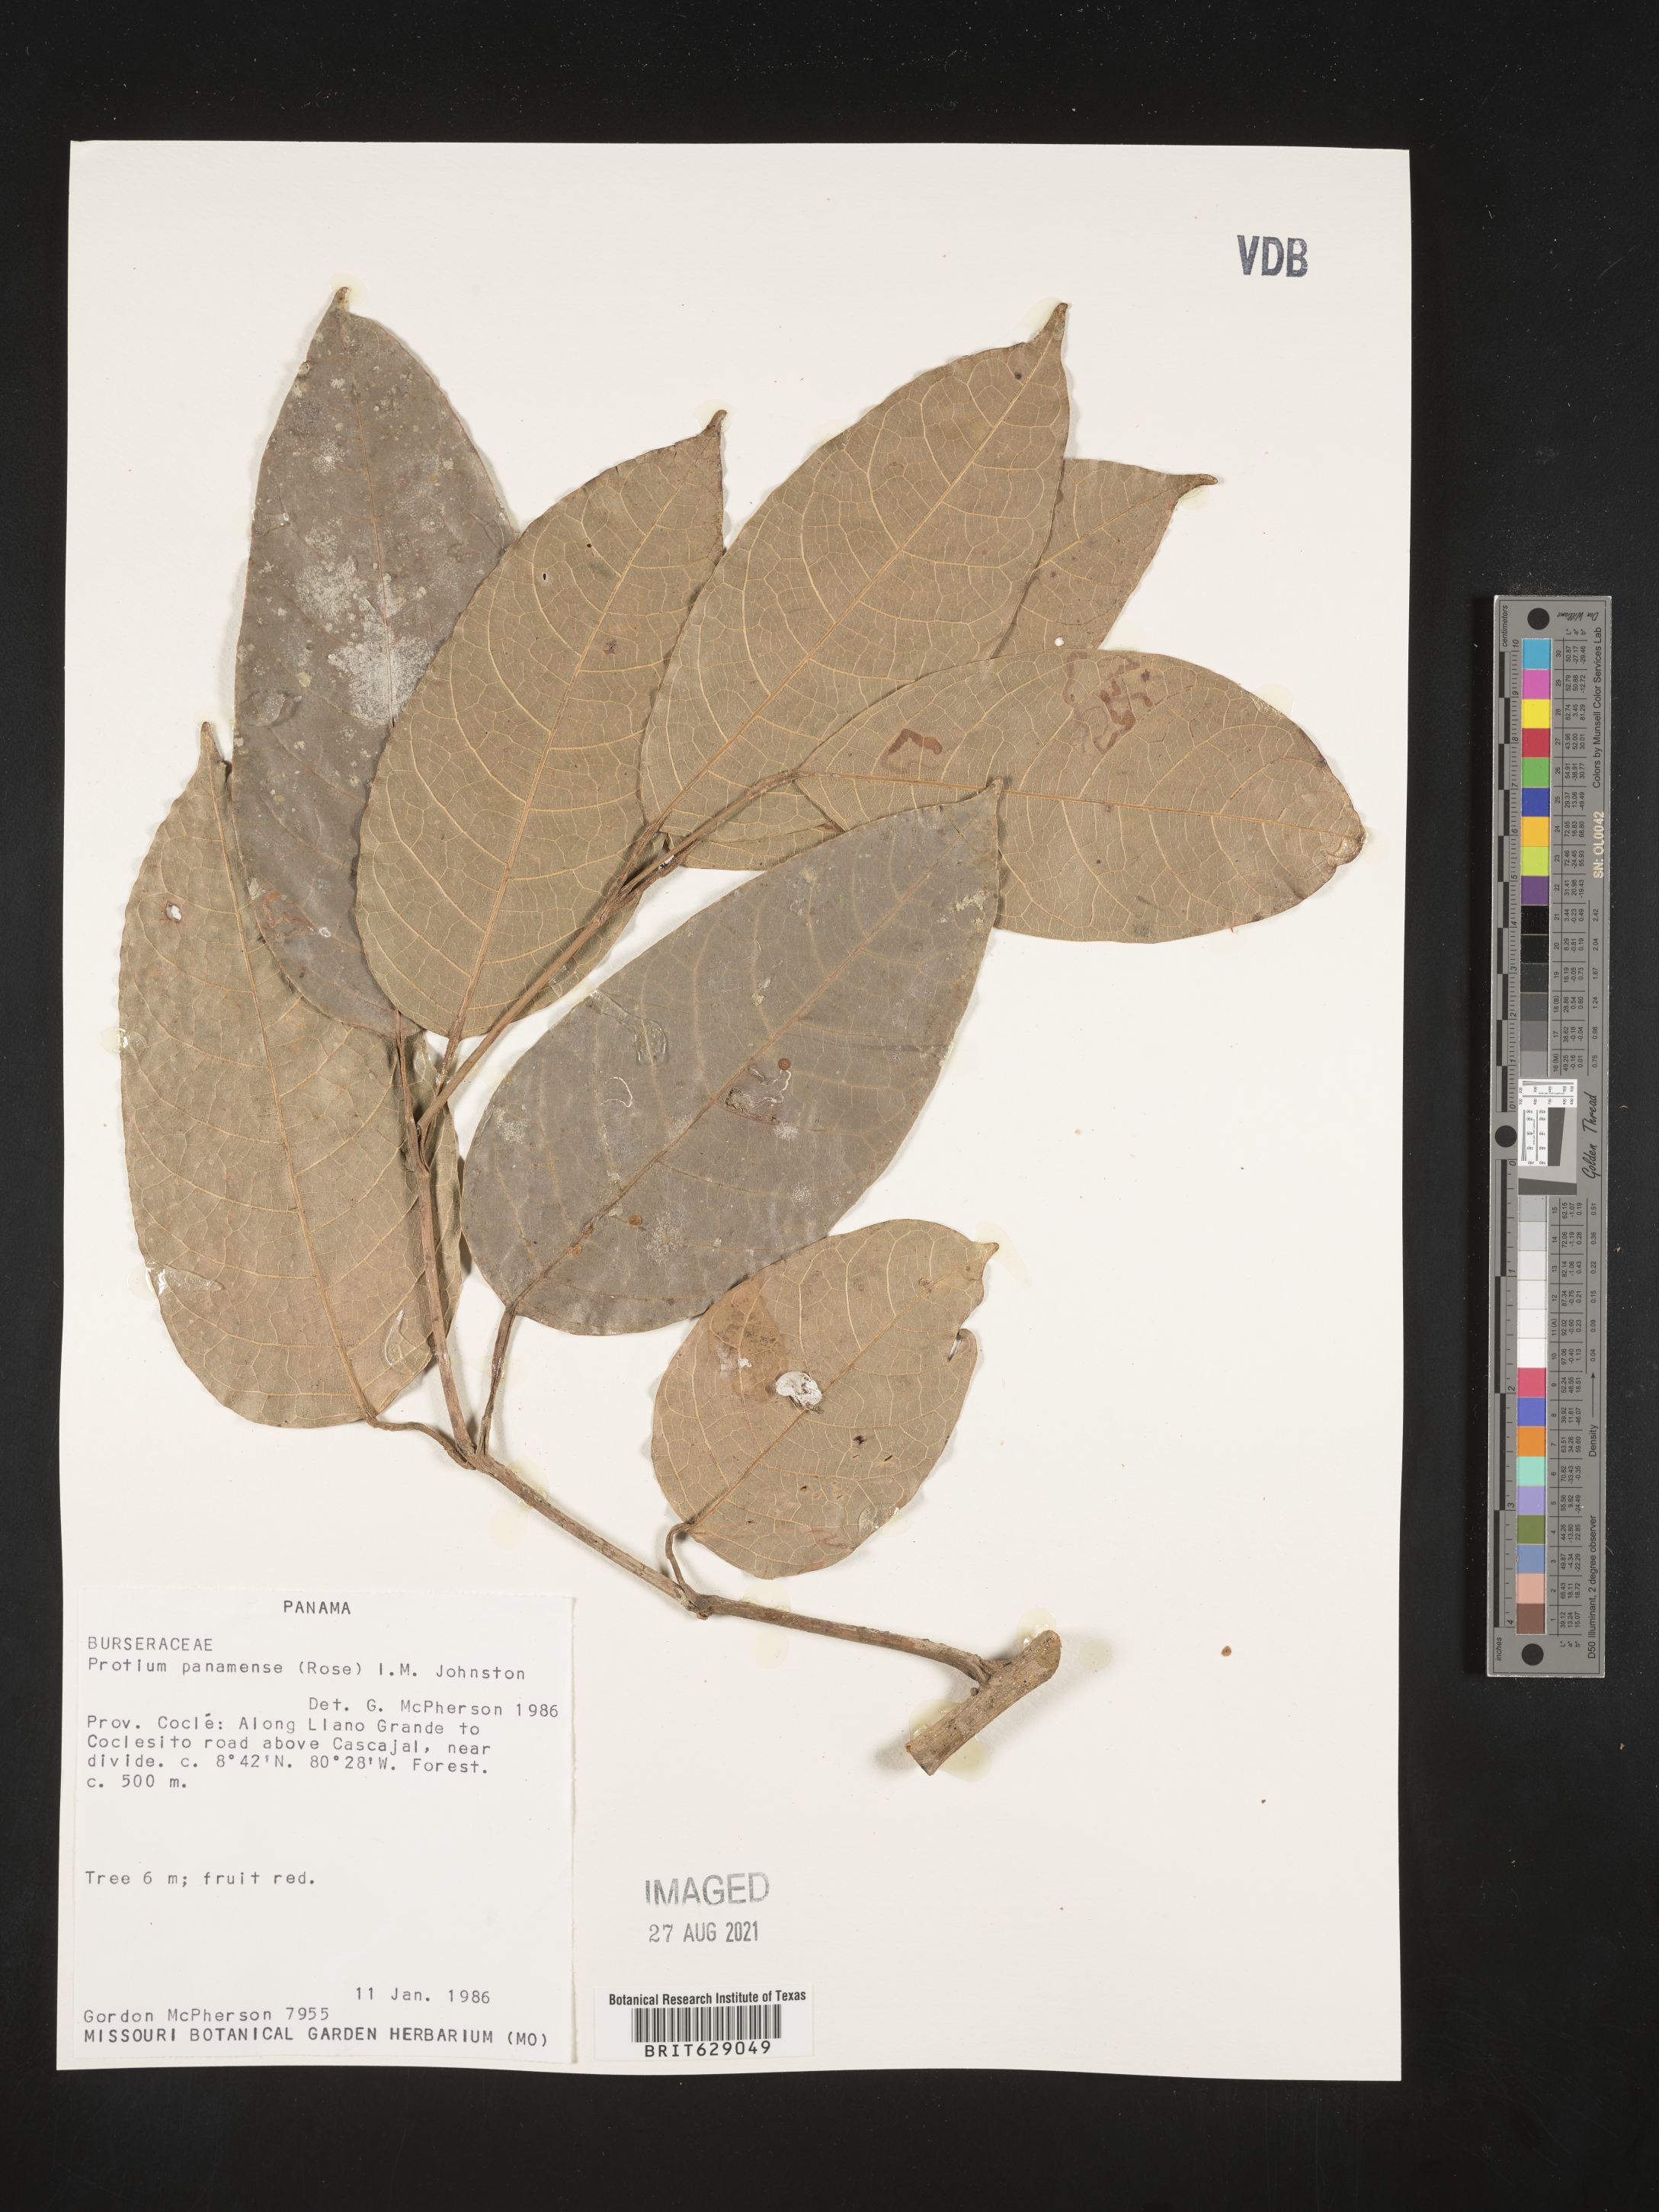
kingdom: Plantae
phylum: Tracheophyta
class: Magnoliopsida
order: Sapindales
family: Burseraceae
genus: Protium
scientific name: Protium panamense
